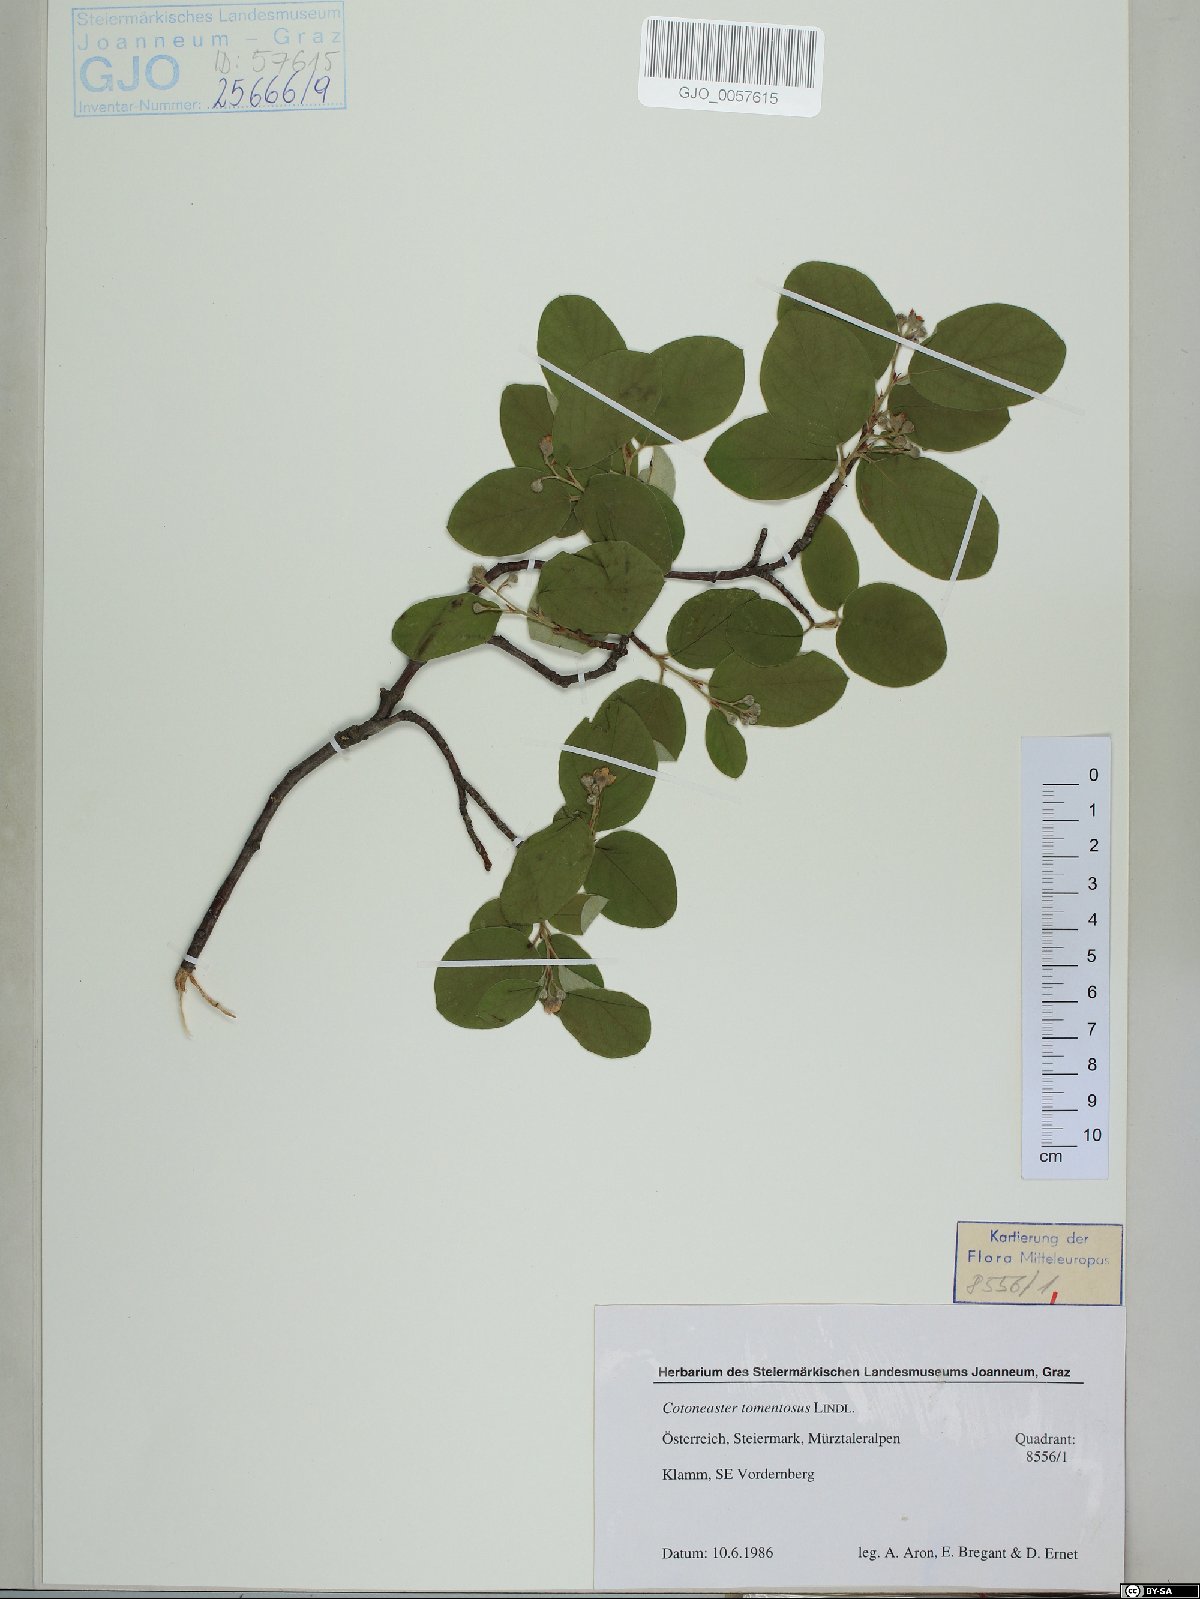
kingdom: Plantae
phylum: Tracheophyta
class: Magnoliopsida
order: Rosales
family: Rosaceae
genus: Cotoneaster
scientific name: Cotoneaster tomentosus
